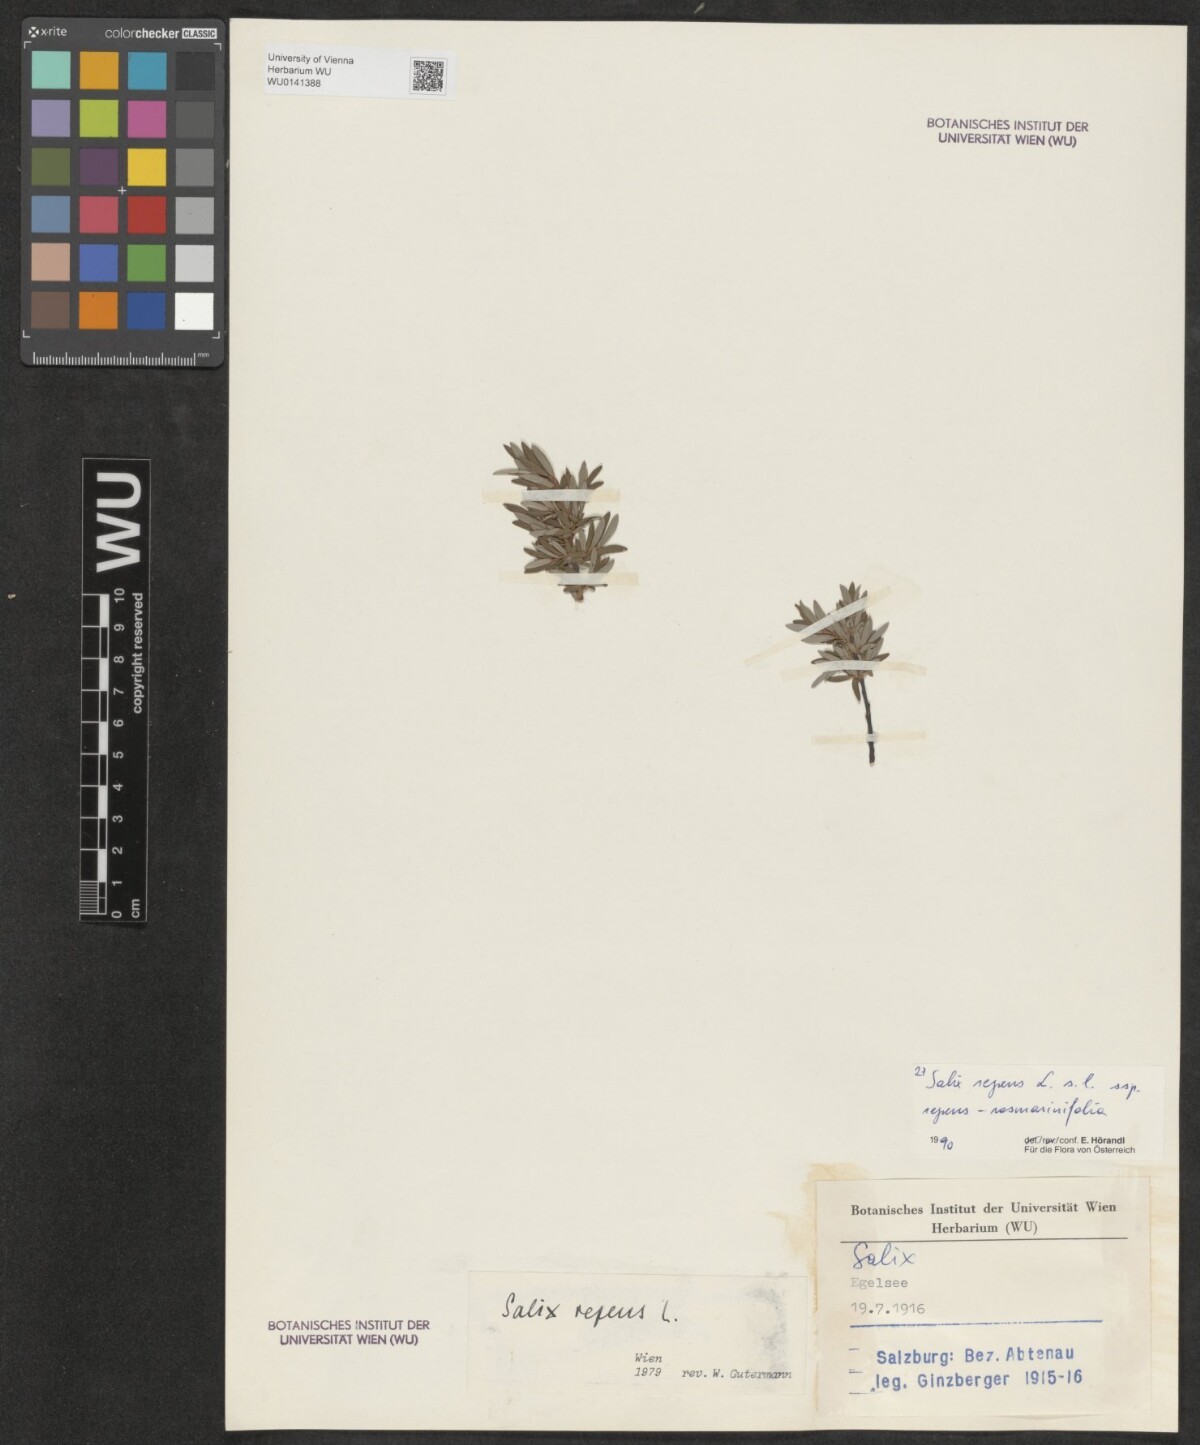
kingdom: Plantae
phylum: Tracheophyta
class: Magnoliopsida
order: Malpighiales
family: Salicaceae
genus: Salix
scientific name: Salix repens
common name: Creeping willow
